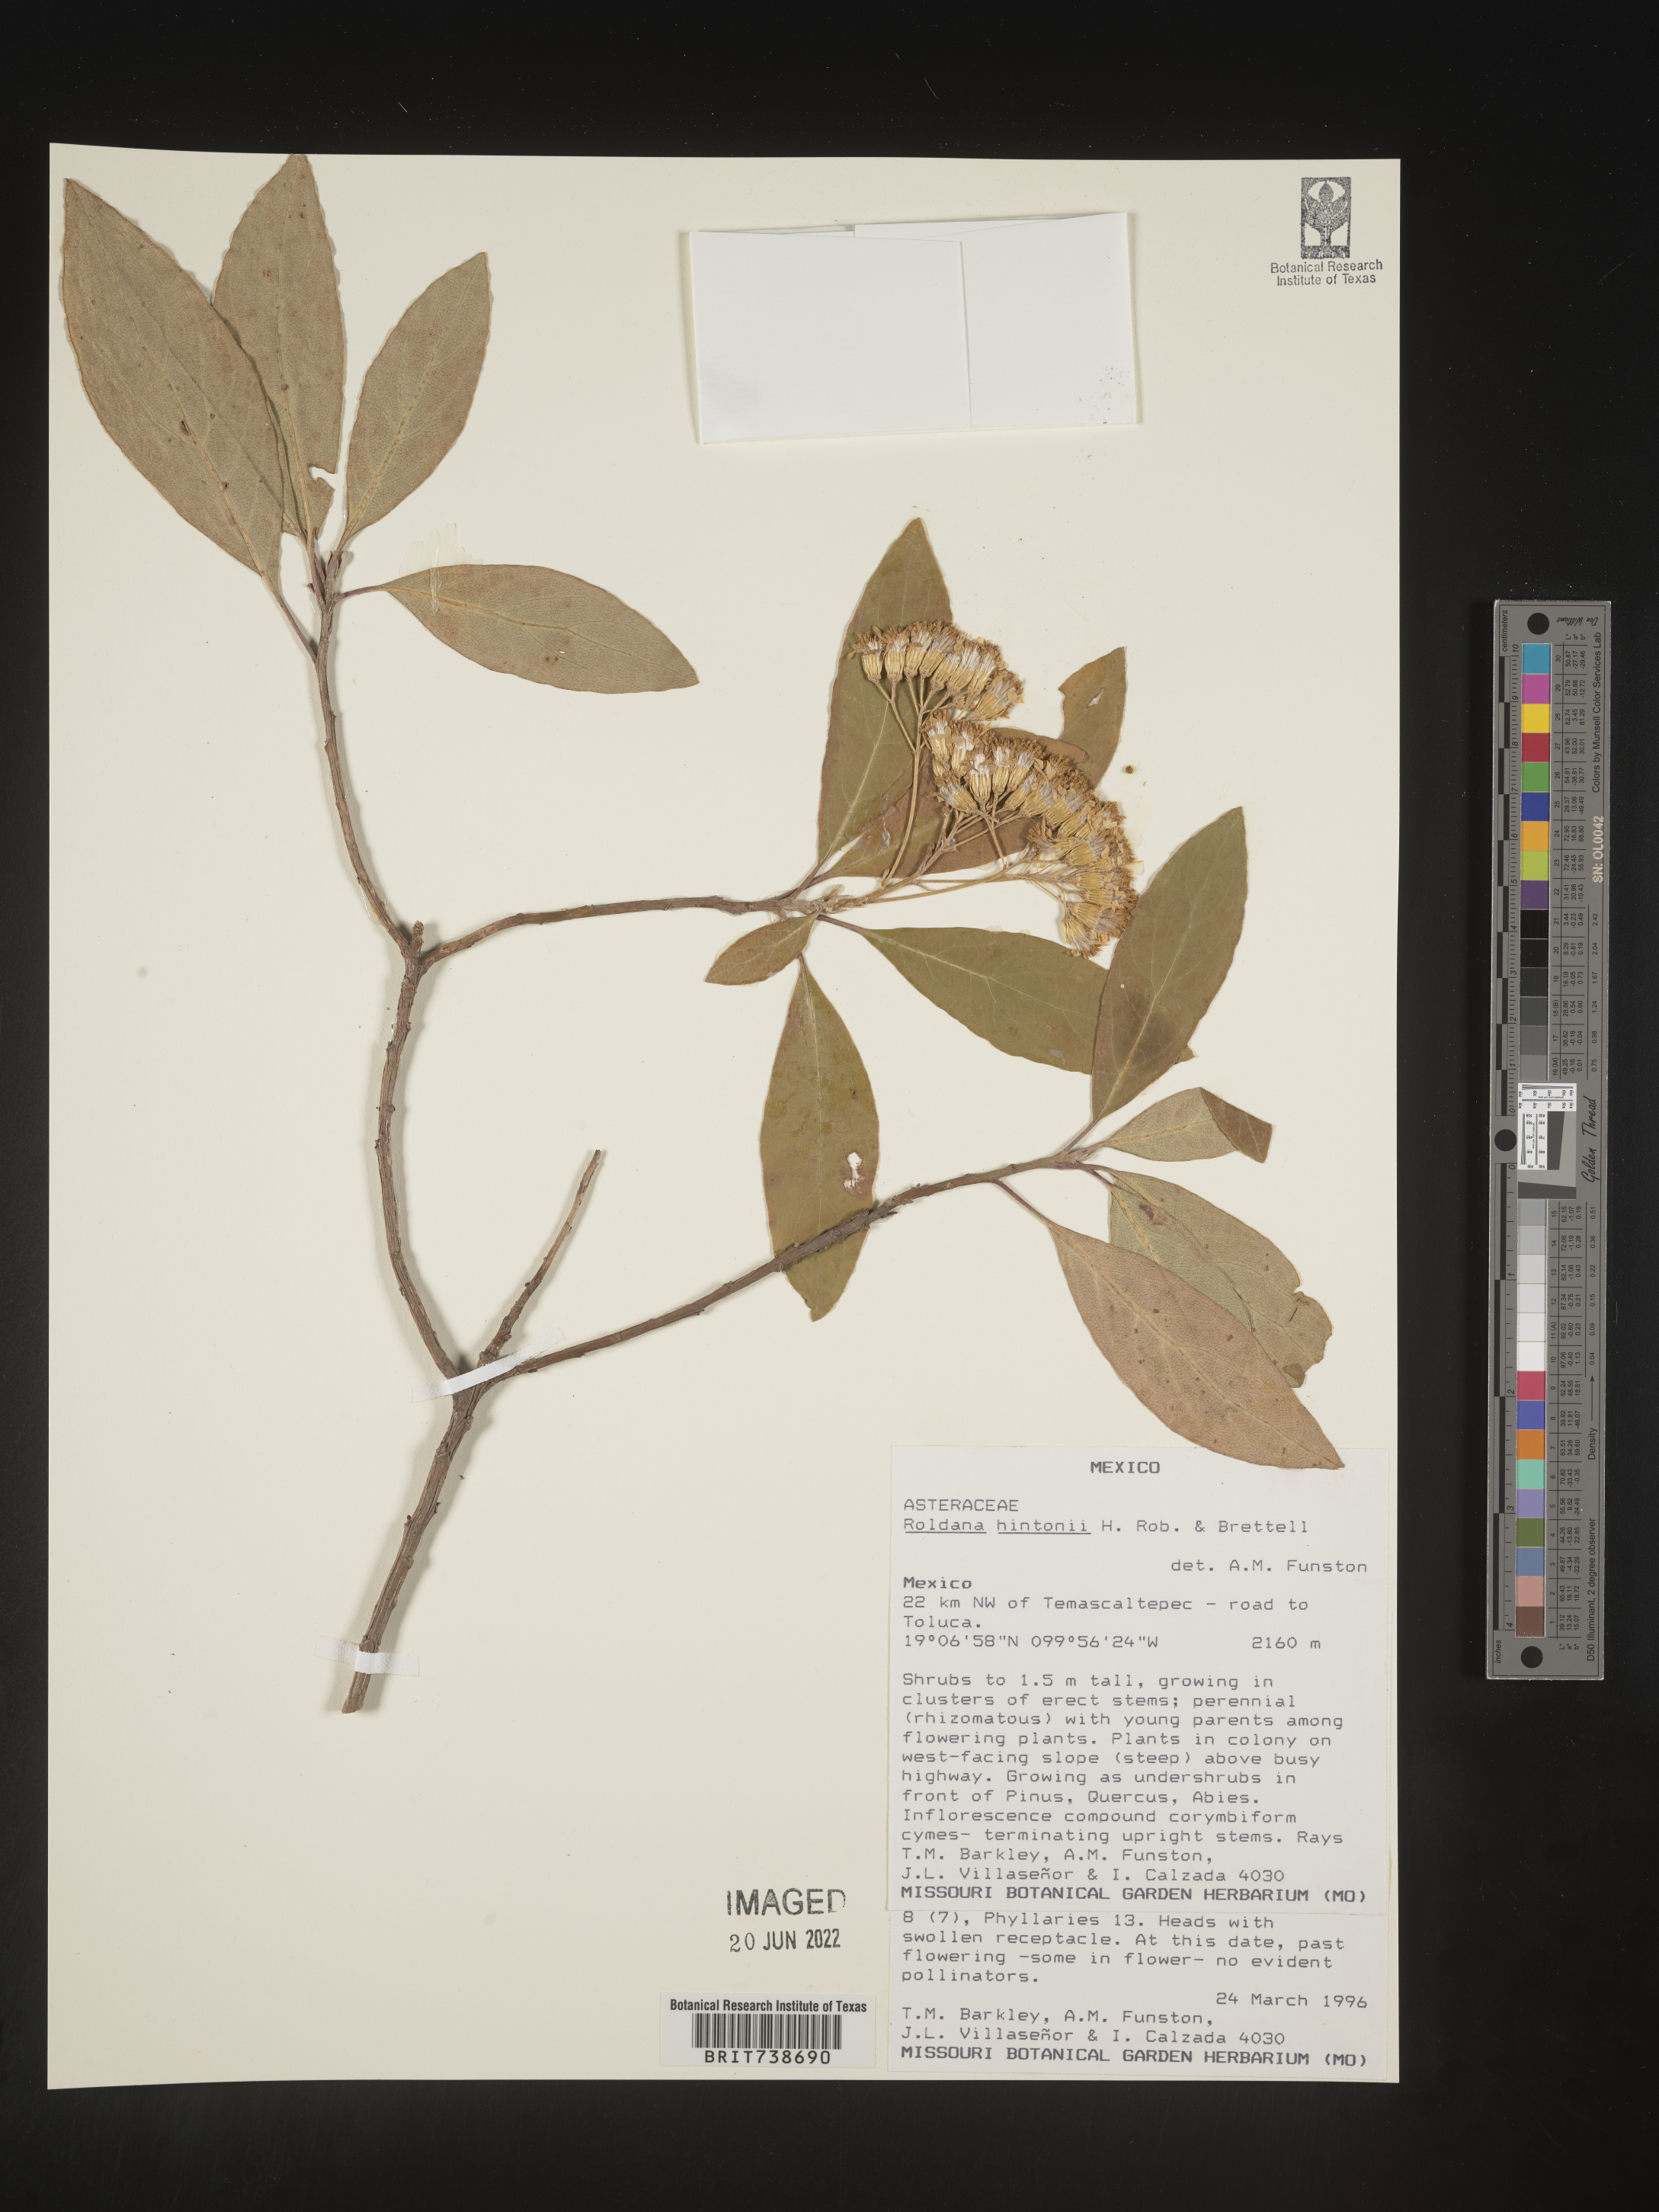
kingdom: Plantae
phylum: Tracheophyta
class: Magnoliopsida
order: Asterales
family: Asteraceae
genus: Roldana
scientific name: Roldana
